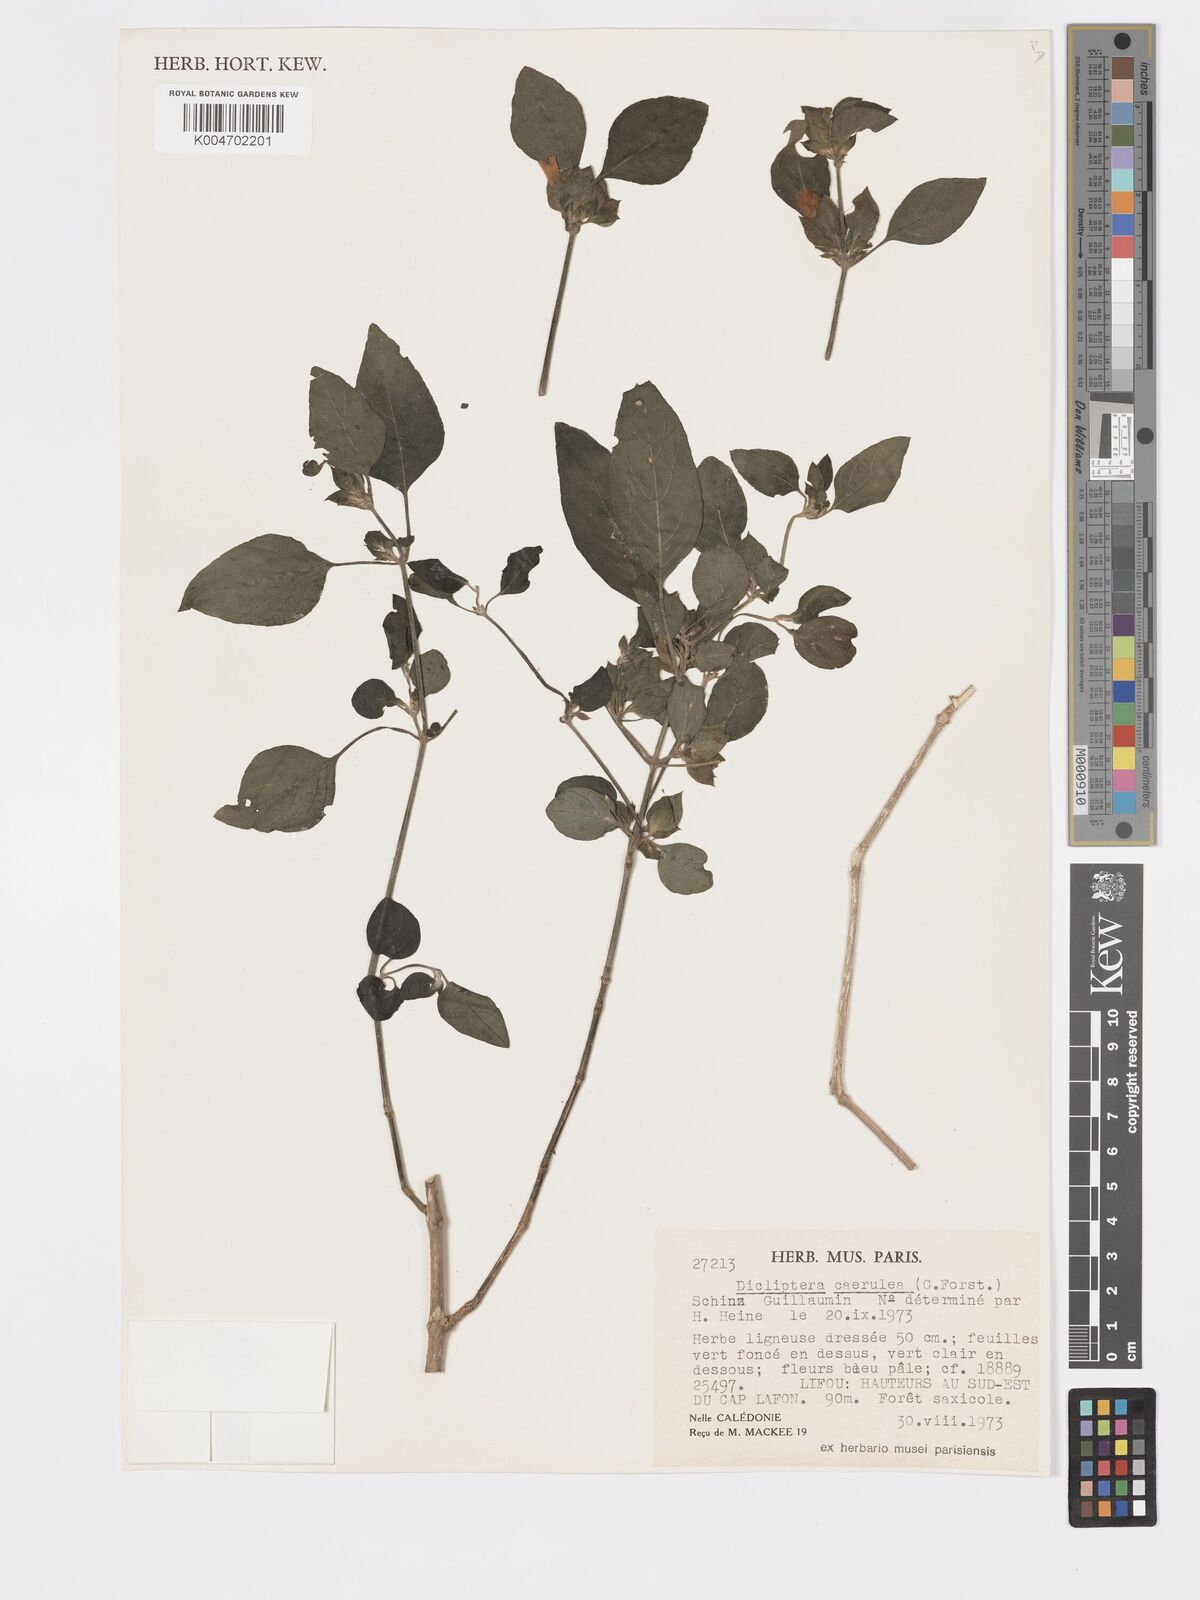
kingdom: Plantae
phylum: Tracheophyta
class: Magnoliopsida
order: Lamiales
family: Acanthaceae
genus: Rungia
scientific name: Rungia parviflora
